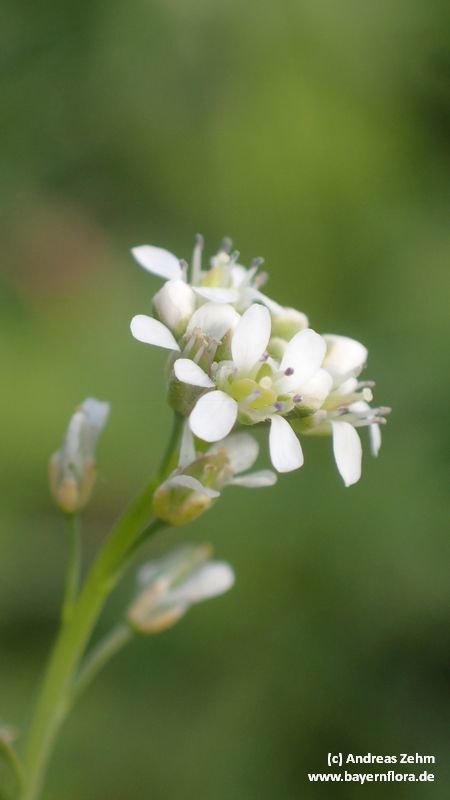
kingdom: Plantae
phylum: Tracheophyta
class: Magnoliopsida
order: Brassicales
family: Brassicaceae
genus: Lepidium
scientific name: Lepidium sativum
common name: Garden cress
